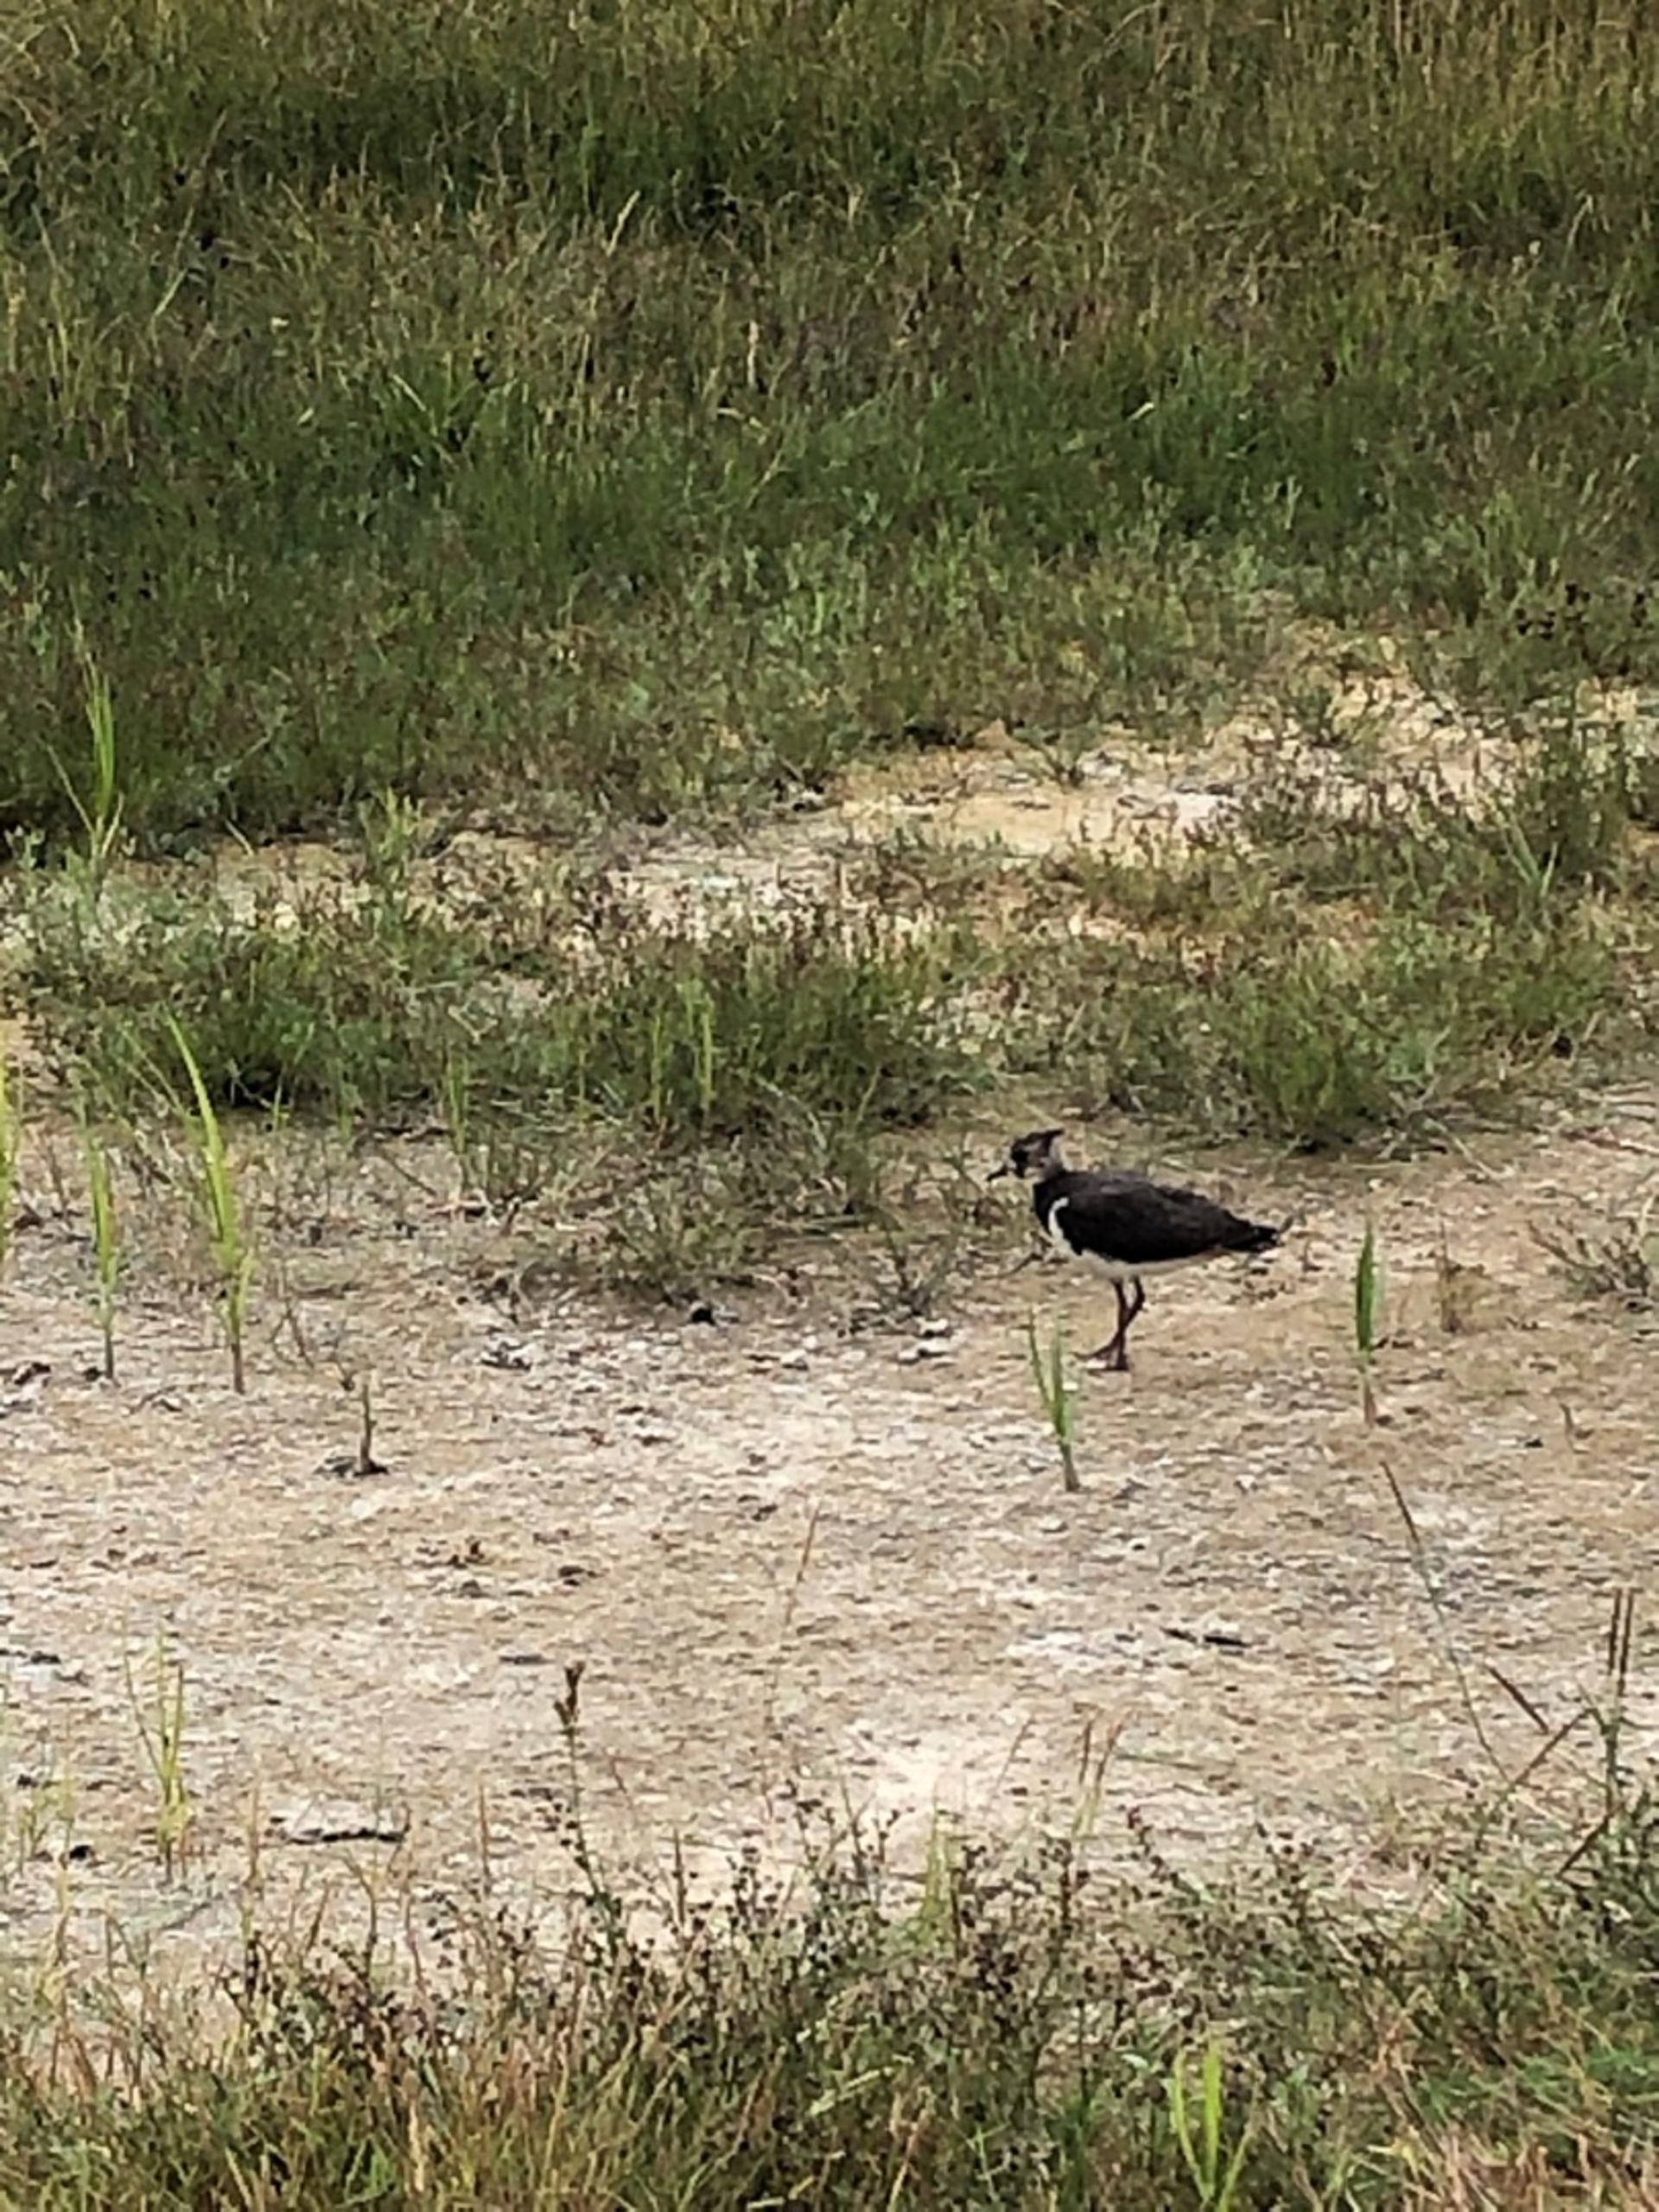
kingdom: Animalia
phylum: Chordata
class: Aves
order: Charadriiformes
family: Charadriidae
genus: Vanellus
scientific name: Vanellus vanellus
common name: Vibe
